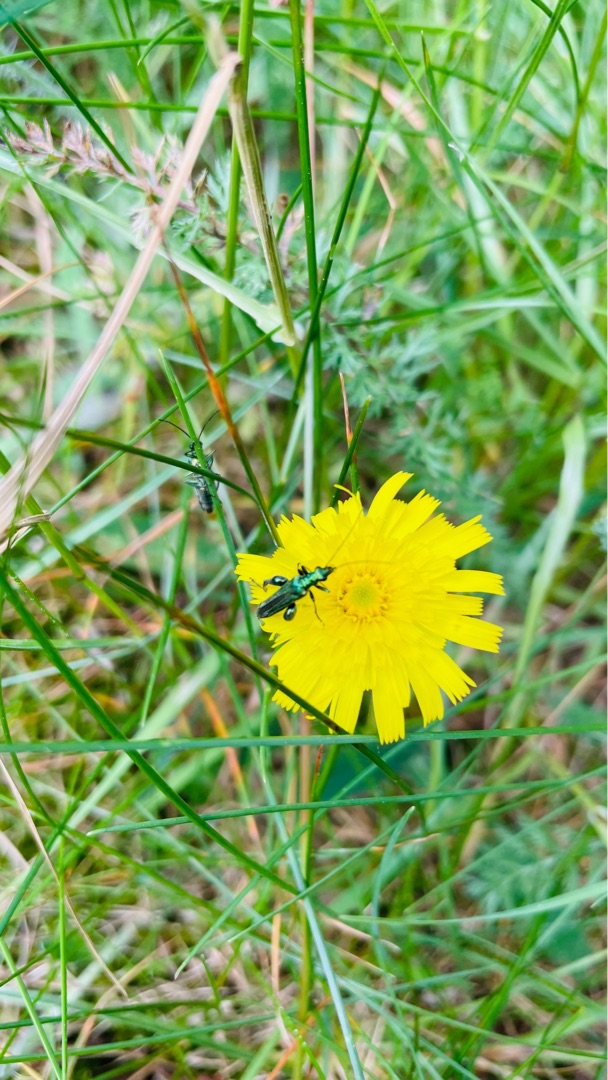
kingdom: Animalia
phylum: Arthropoda
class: Insecta
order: Coleoptera
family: Oedemeridae
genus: Oedemera
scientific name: Oedemera nobilis
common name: Tyklårssolbille
